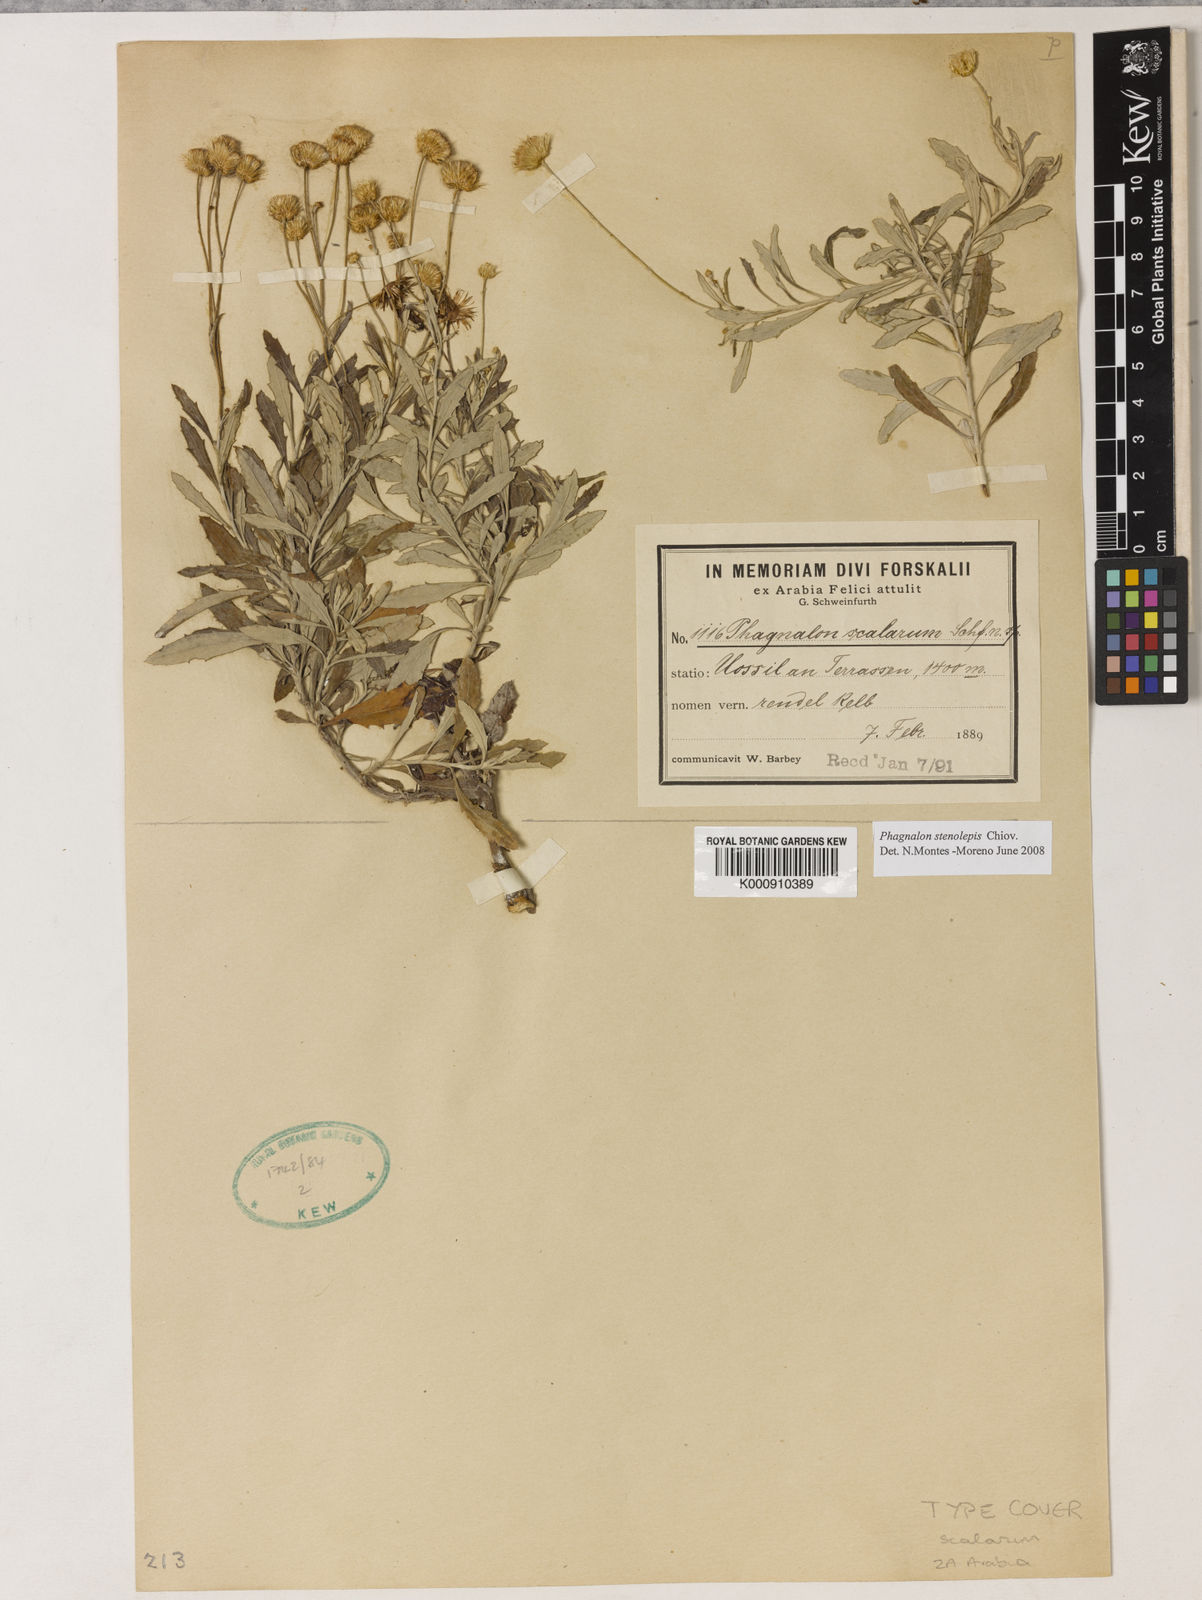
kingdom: Plantae
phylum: Tracheophyta
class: Magnoliopsida
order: Asterales
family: Asteraceae
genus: Phagnalon
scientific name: Phagnalon stenolepis
